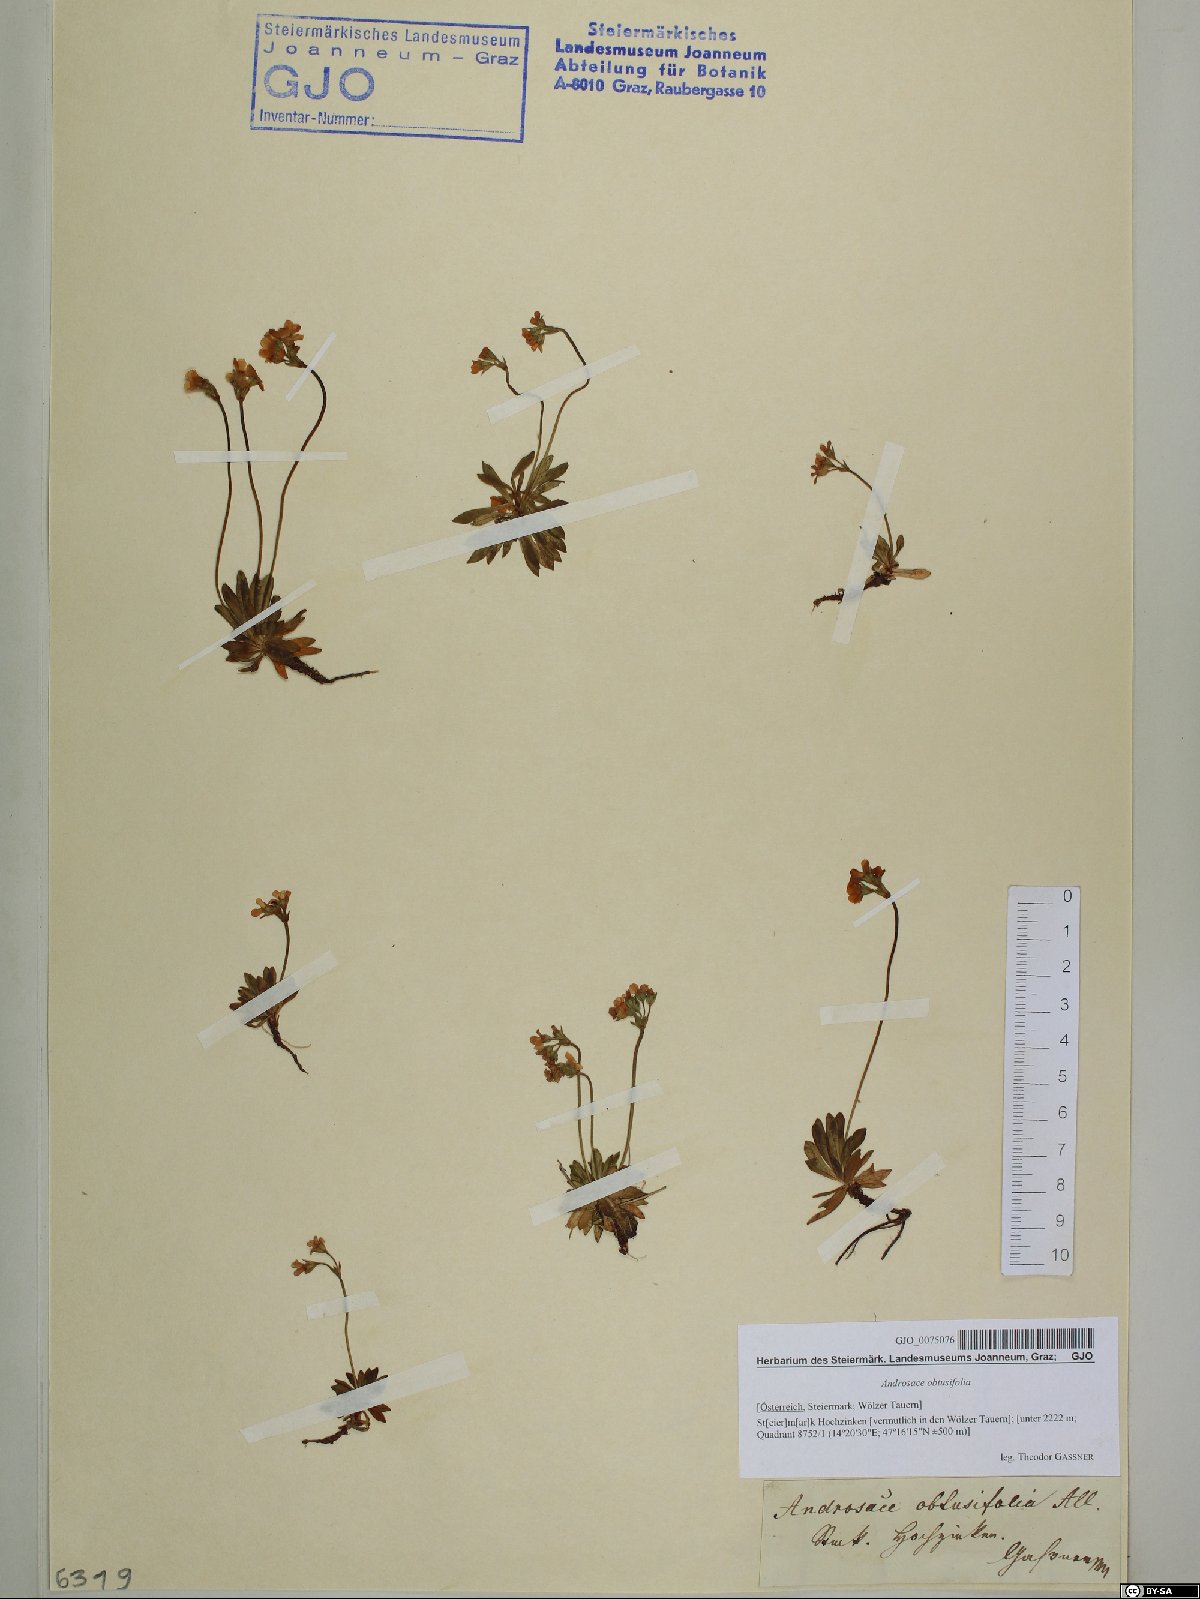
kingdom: Plantae
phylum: Tracheophyta
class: Magnoliopsida
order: Ericales
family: Primulaceae
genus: Androsace
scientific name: Androsace obtusifolia
